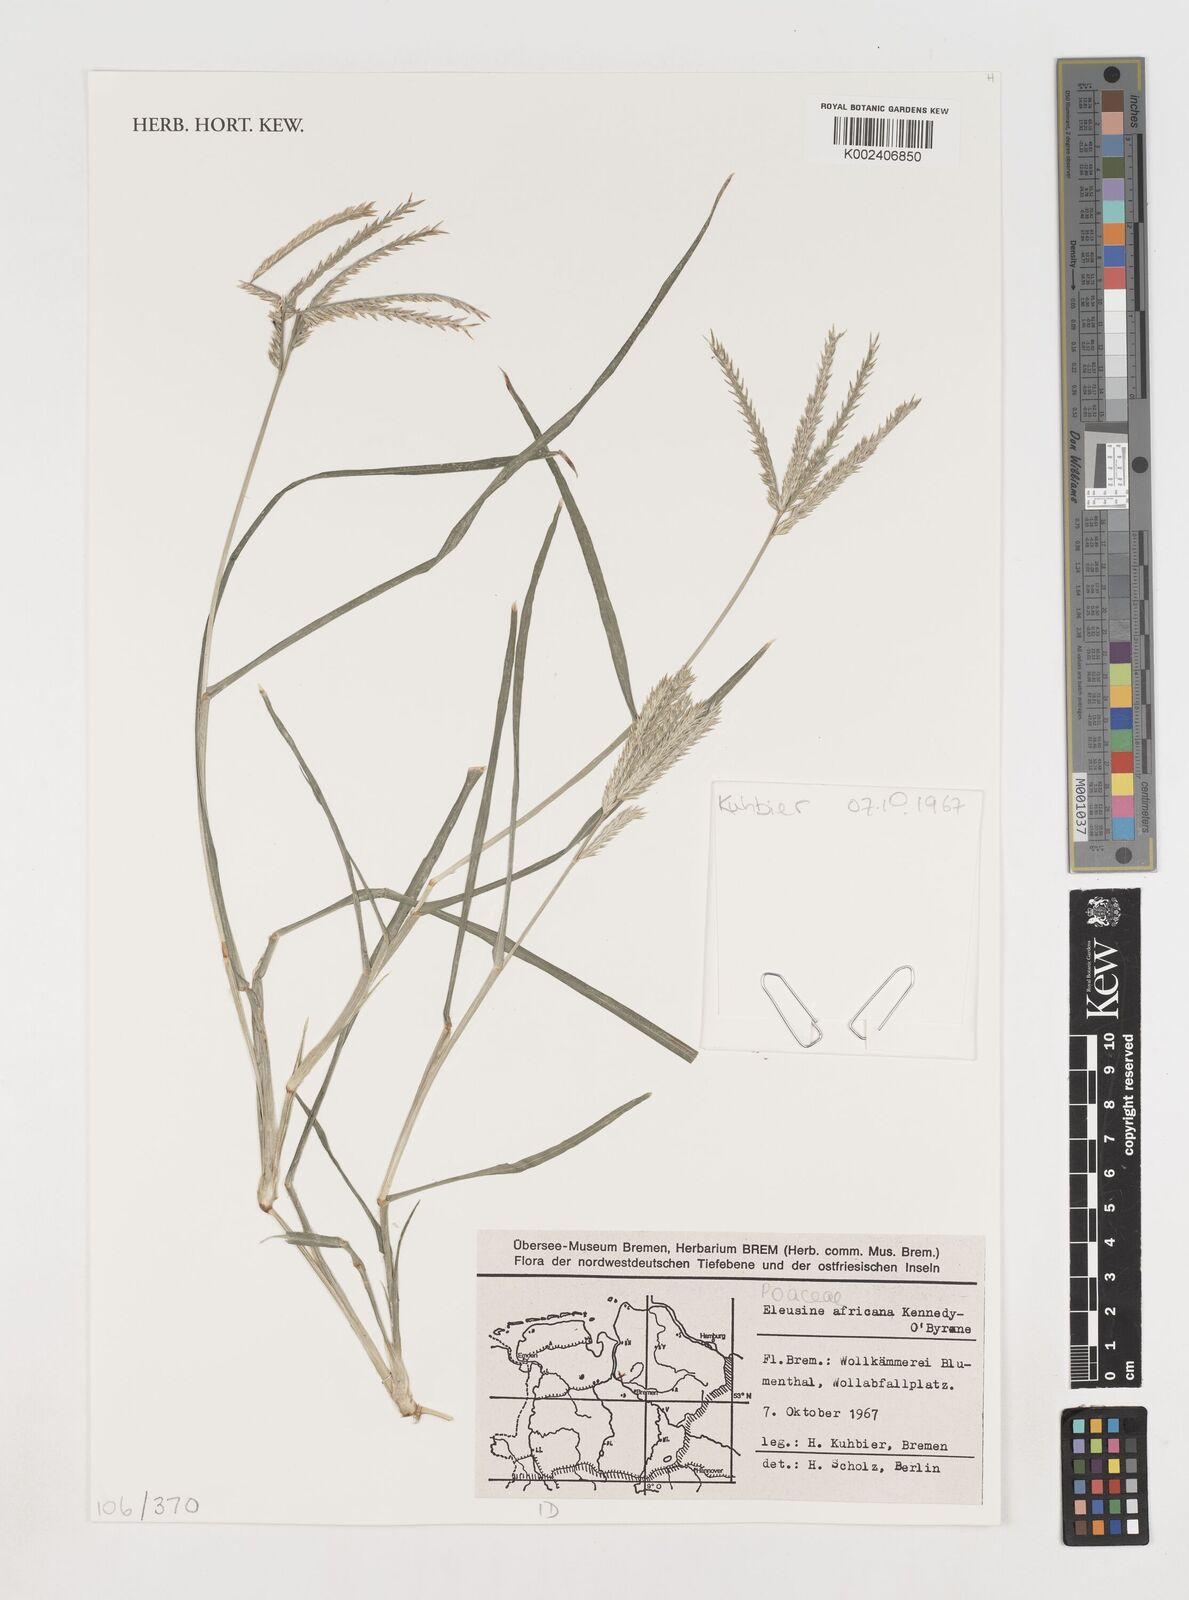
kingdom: Plantae
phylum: Tracheophyta
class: Liliopsida
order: Poales
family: Poaceae
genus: Eleusine
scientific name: Eleusine africana
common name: Wild african finger millet
